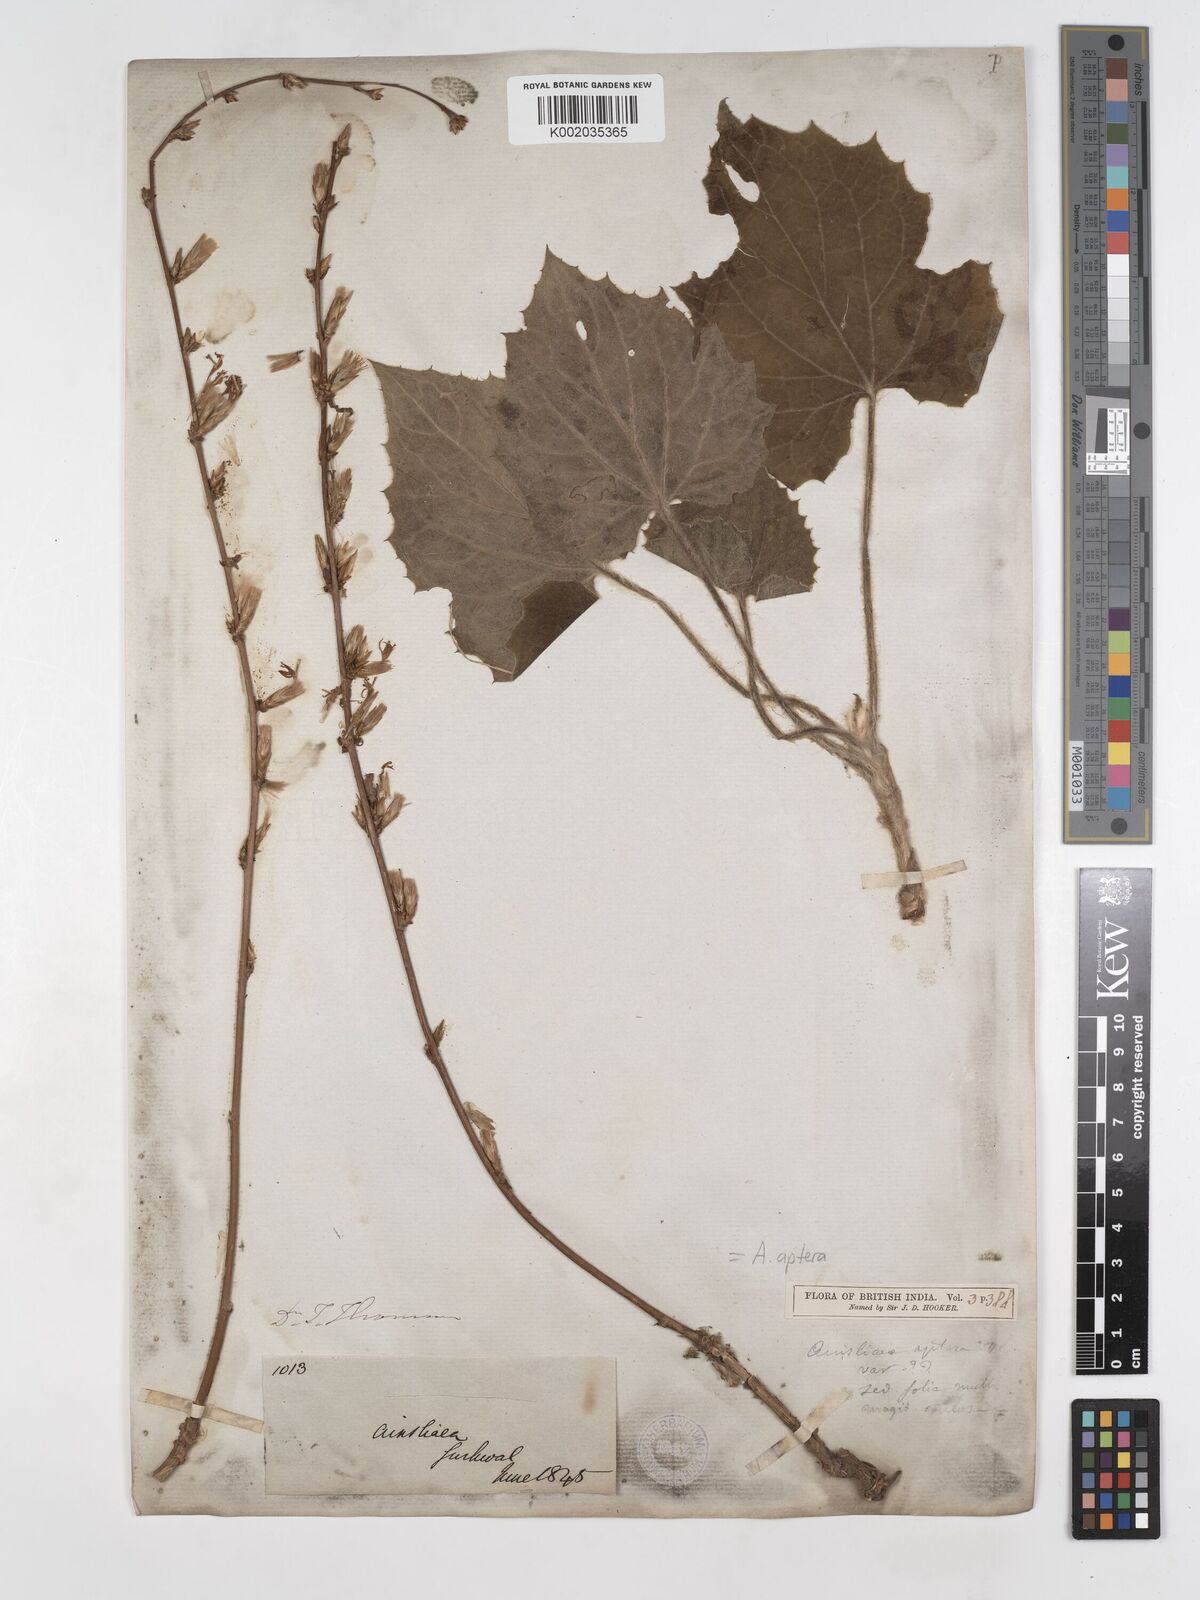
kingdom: Plantae
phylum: Tracheophyta
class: Magnoliopsida
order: Asterales
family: Asteraceae
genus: Ainsliaea
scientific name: Ainsliaea aptera
